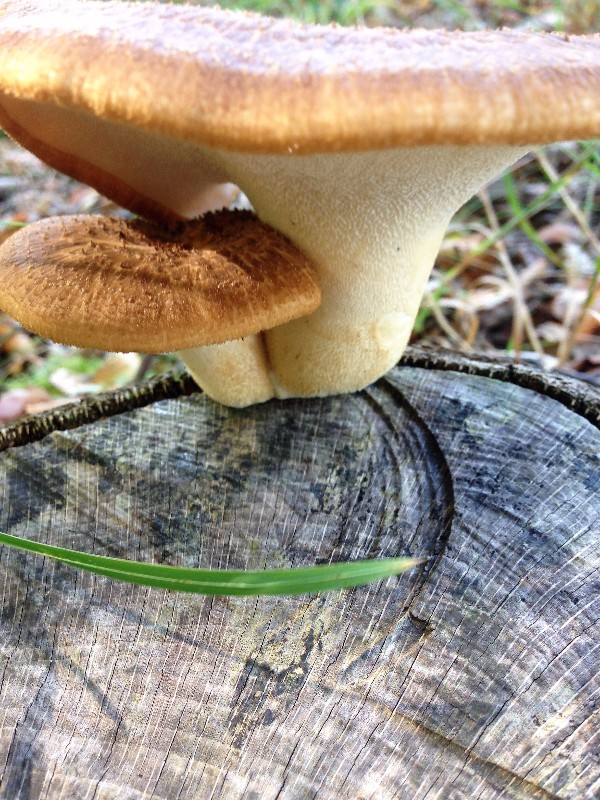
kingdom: Fungi
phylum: Basidiomycota
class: Agaricomycetes
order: Polyporales
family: Polyporaceae
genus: Cerioporus
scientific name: Cerioporus squamosus
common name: skællet stilkporesvamp
